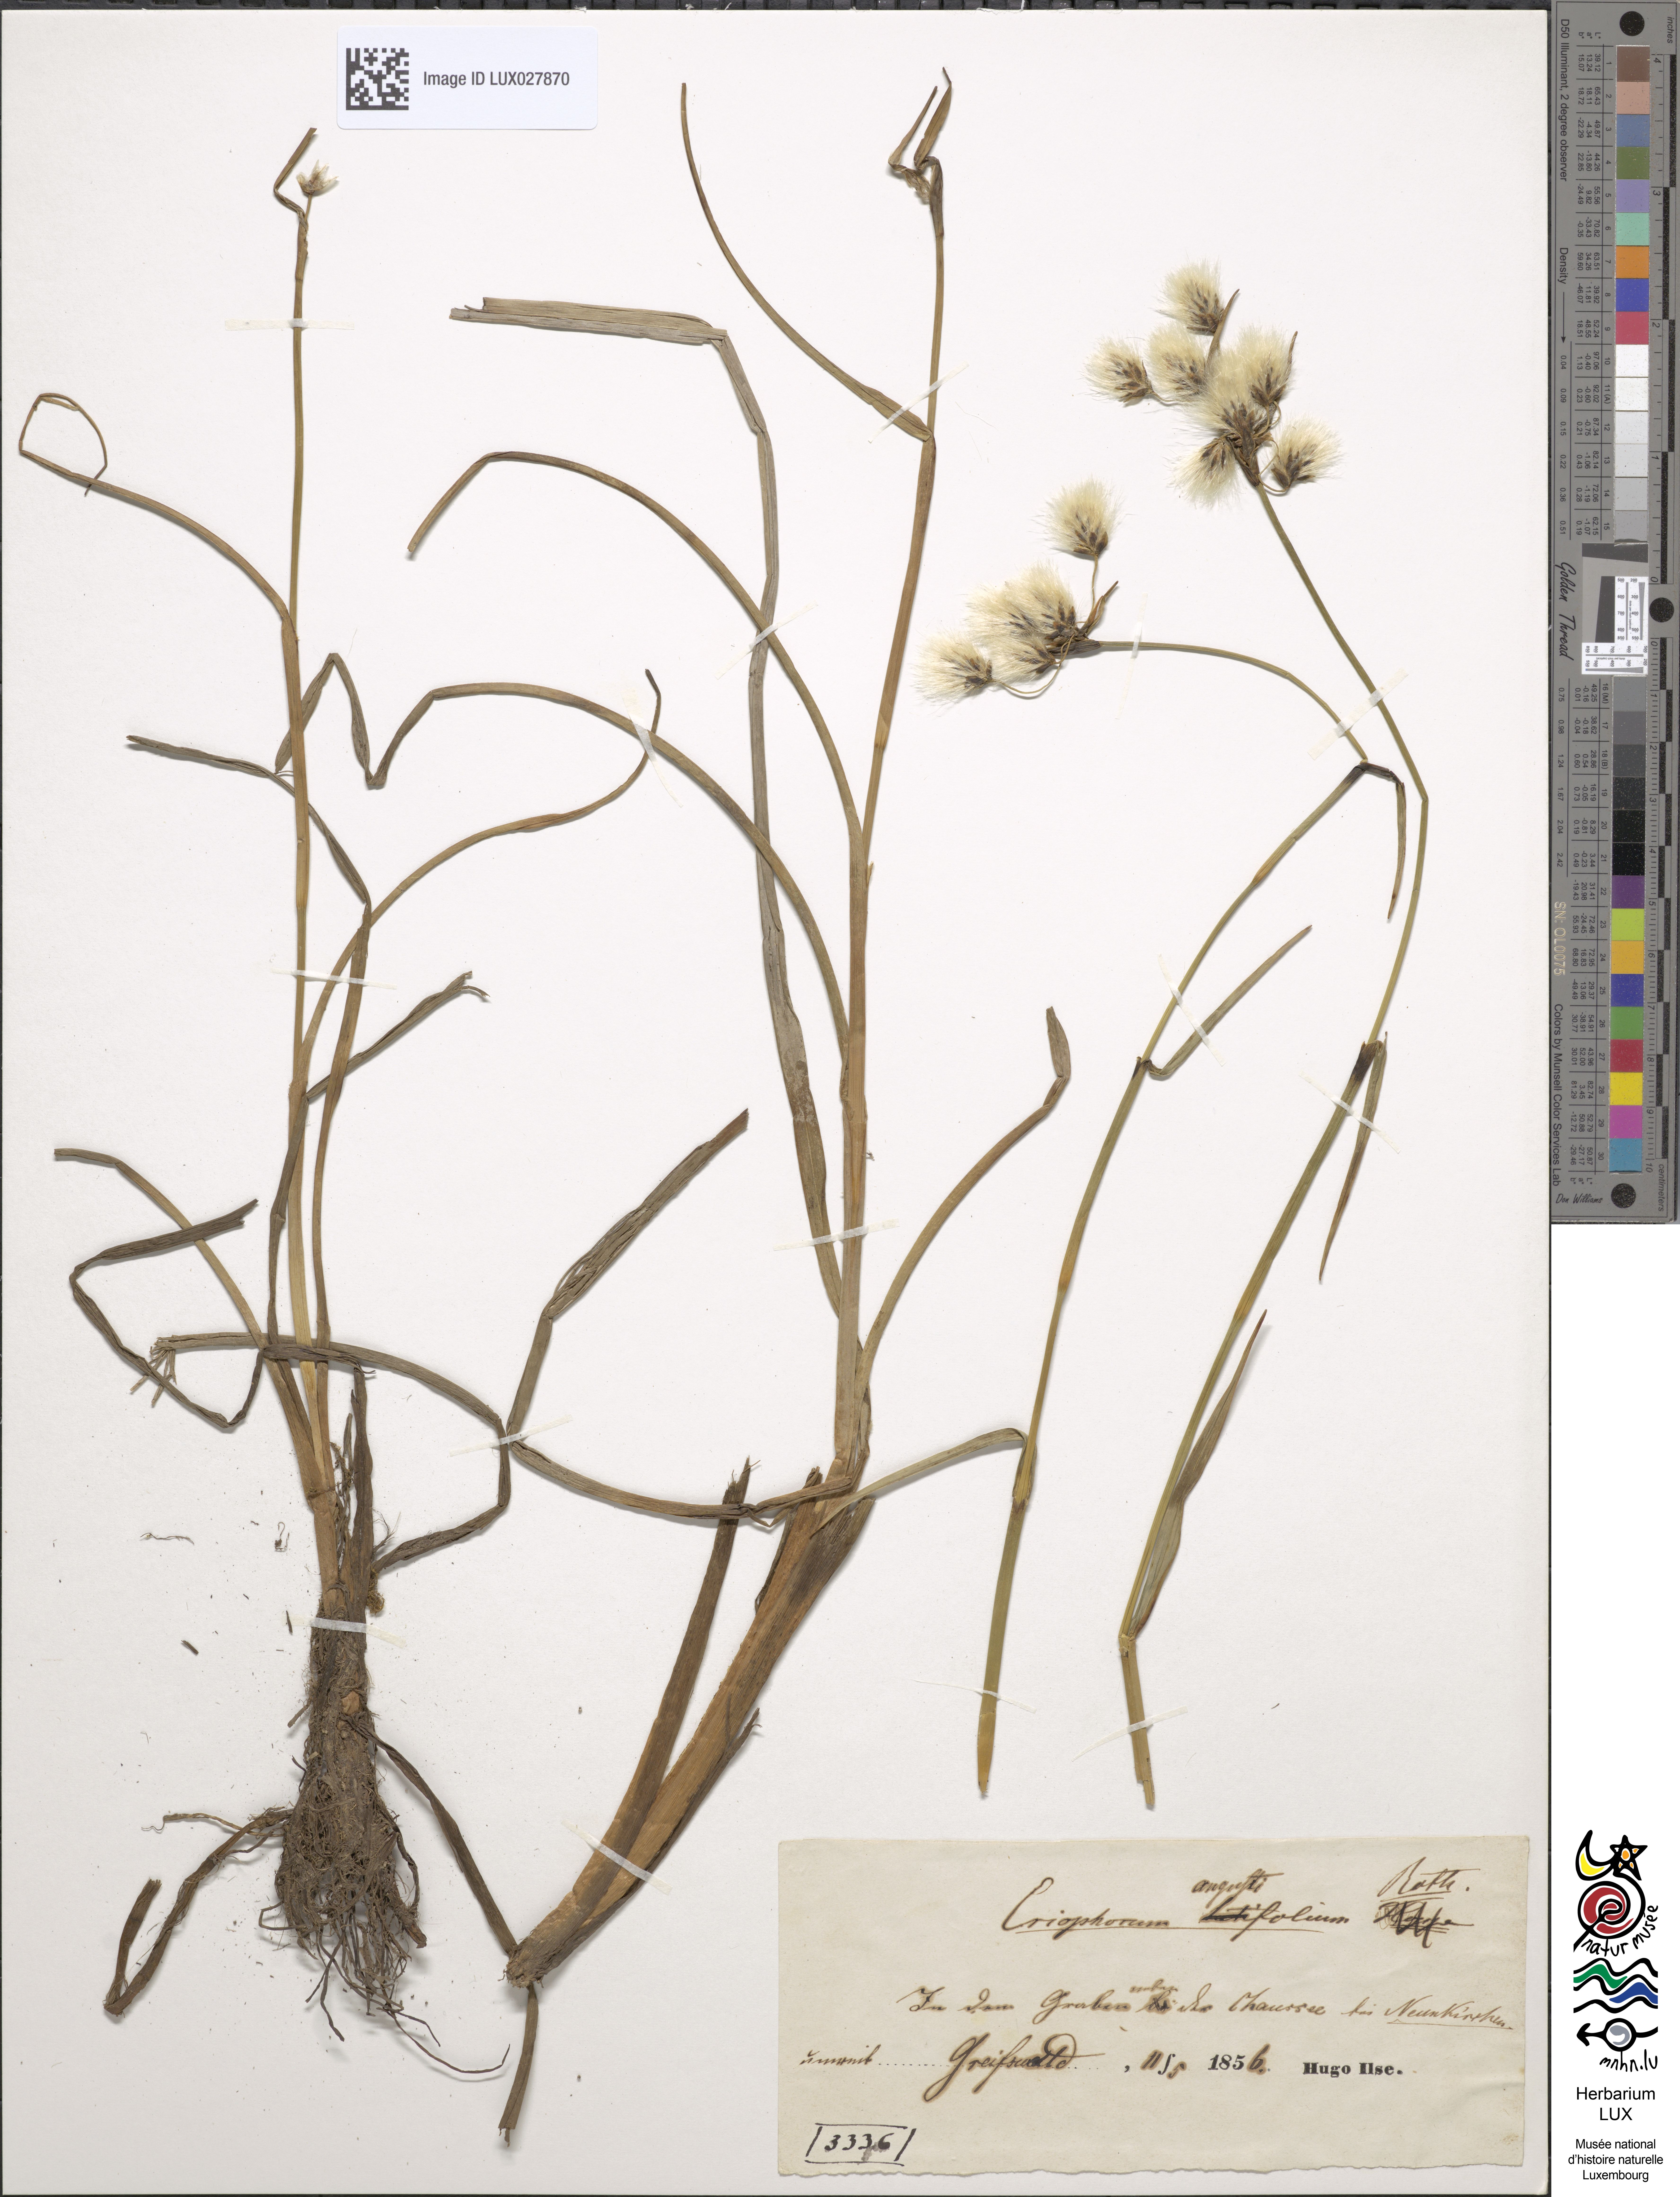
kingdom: Plantae
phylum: Tracheophyta
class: Liliopsida
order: Poales
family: Cyperaceae
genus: Eriophorum
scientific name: Eriophorum angustifolium
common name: Common cottongrass
